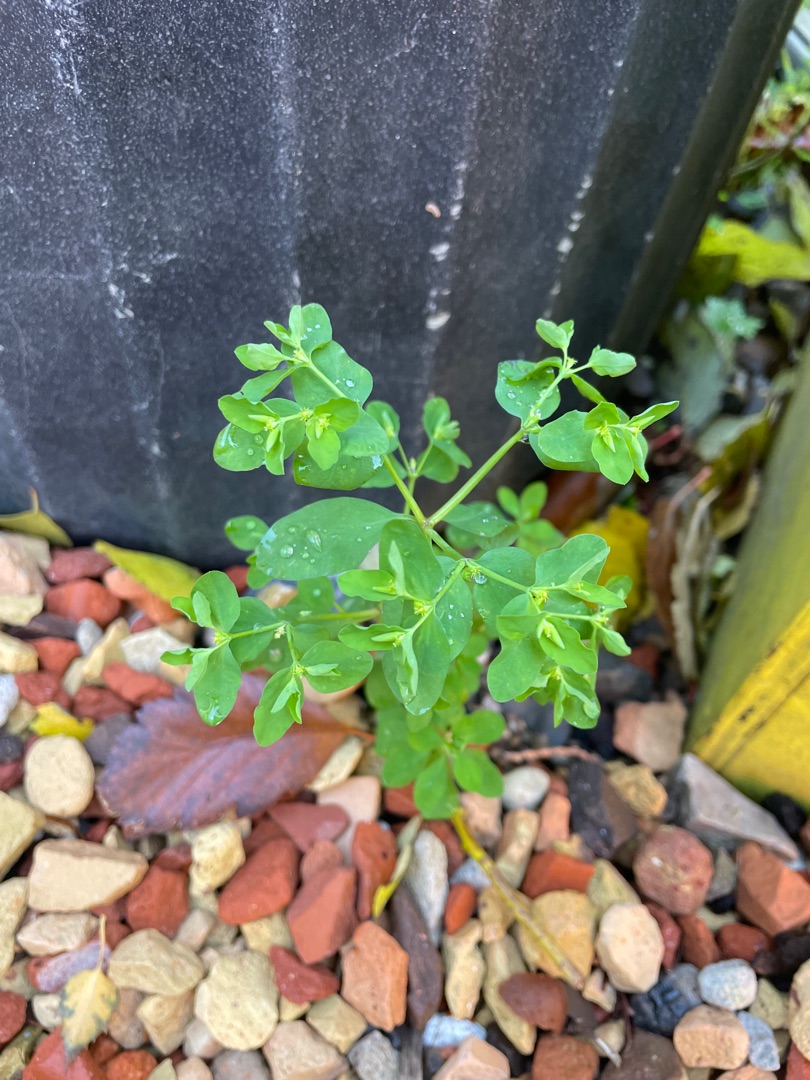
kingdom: Plantae
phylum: Tracheophyta
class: Magnoliopsida
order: Malpighiales
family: Euphorbiaceae
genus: Euphorbia
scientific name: Euphorbia peplus
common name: Gaffel-vortemælk
